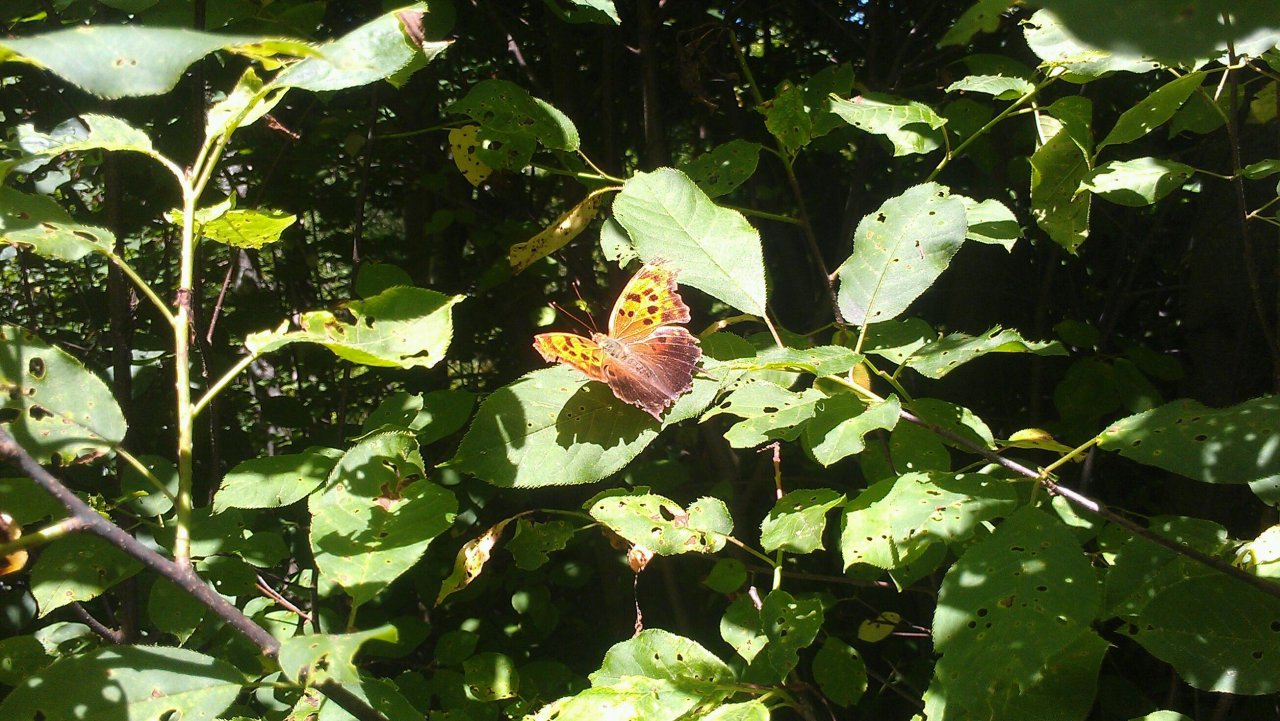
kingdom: Animalia
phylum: Arthropoda
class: Insecta
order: Lepidoptera
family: Nymphalidae
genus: Polygonia
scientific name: Polygonia interrogationis
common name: Question Mark
